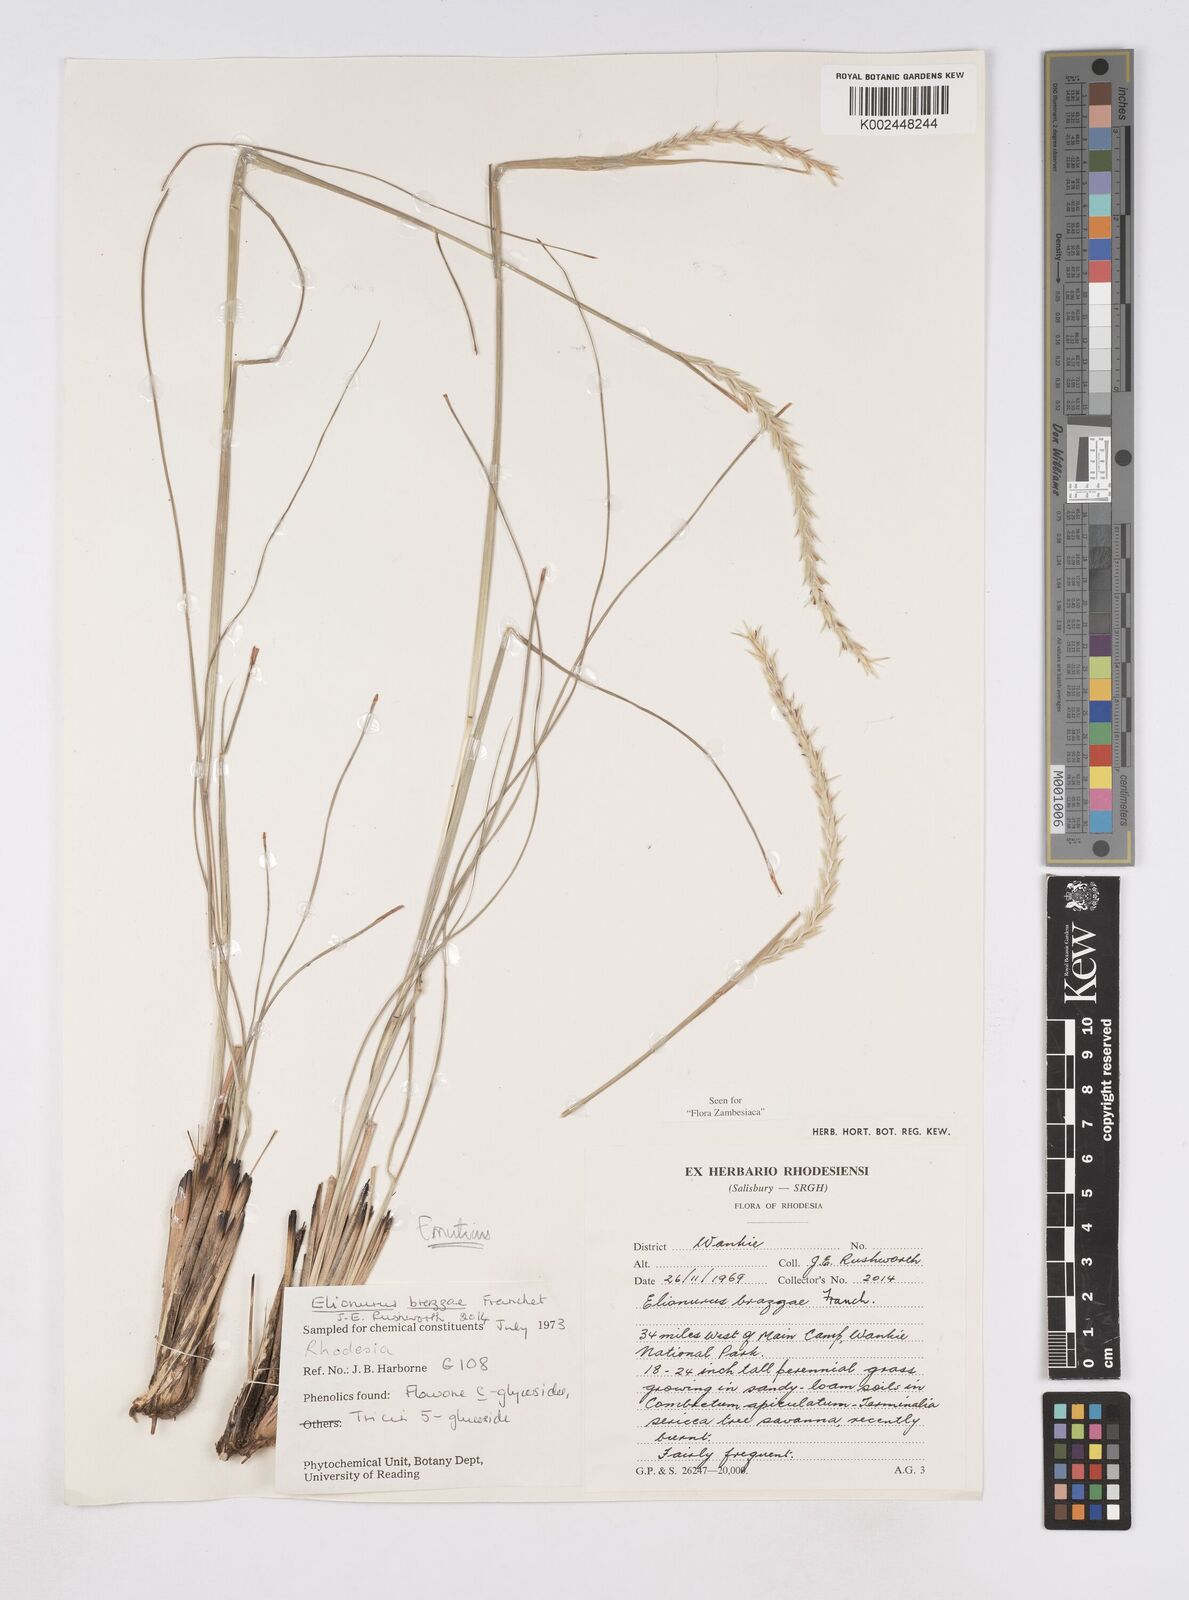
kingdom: Plantae
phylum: Tracheophyta
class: Liliopsida
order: Poales
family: Poaceae
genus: Elionurus
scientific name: Elionurus muticus
